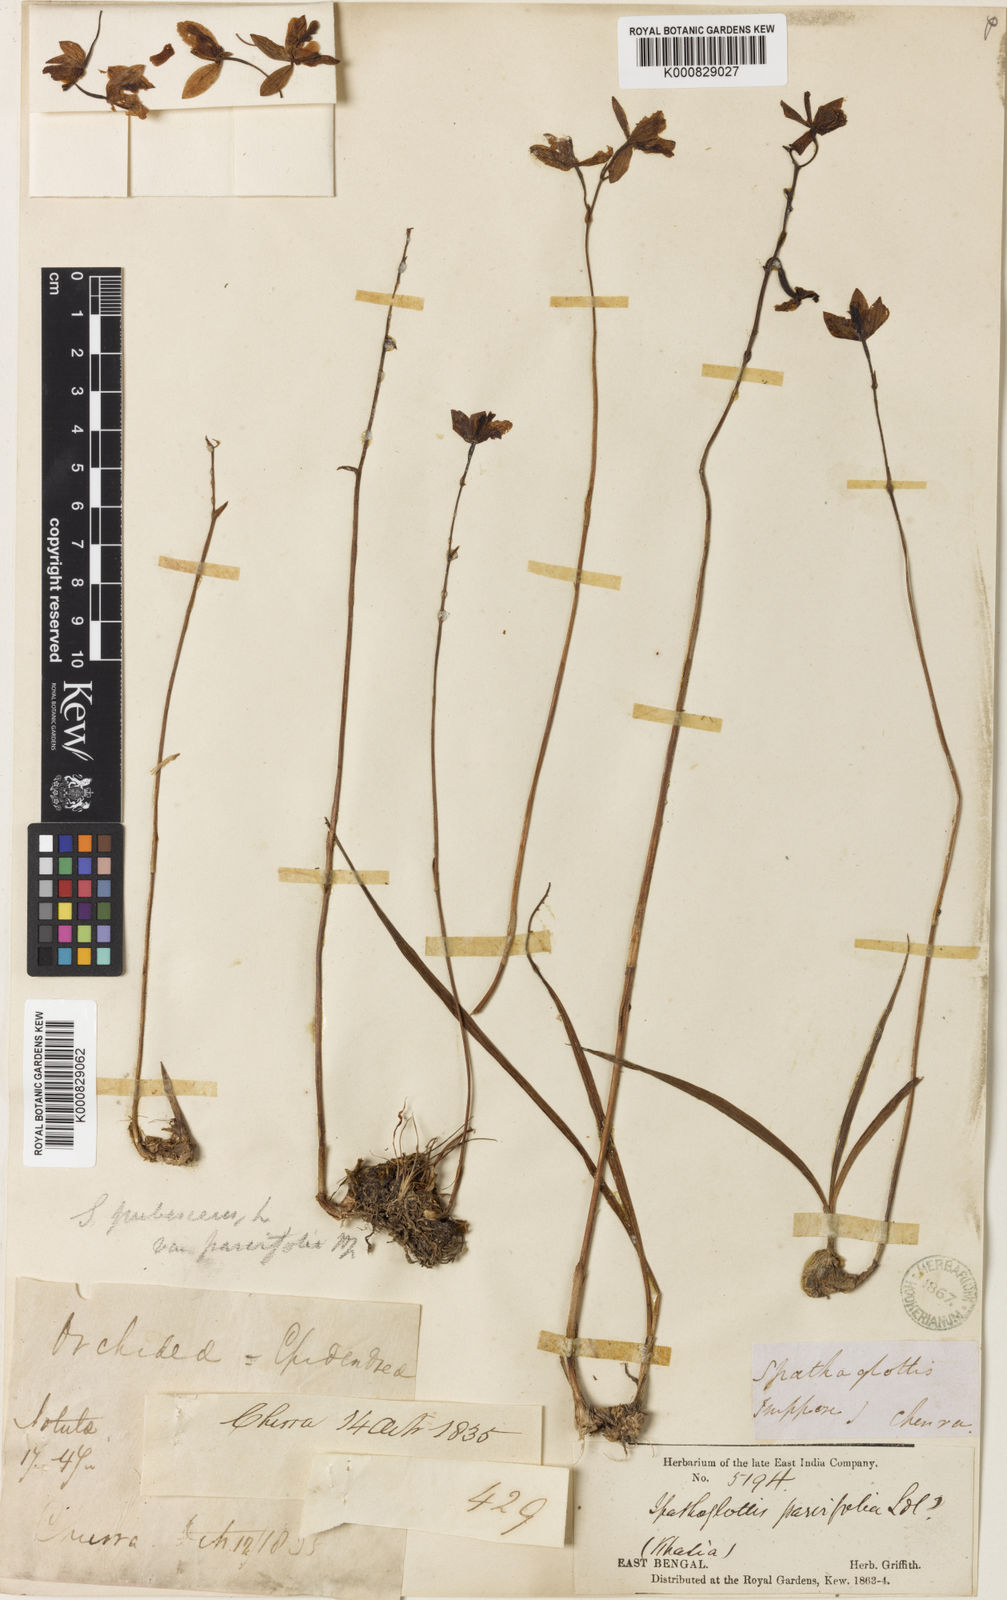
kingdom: Plantae
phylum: Tracheophyta
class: Liliopsida
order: Asparagales
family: Orchidaceae
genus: Spathoglottis
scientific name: Spathoglottis pubescens
